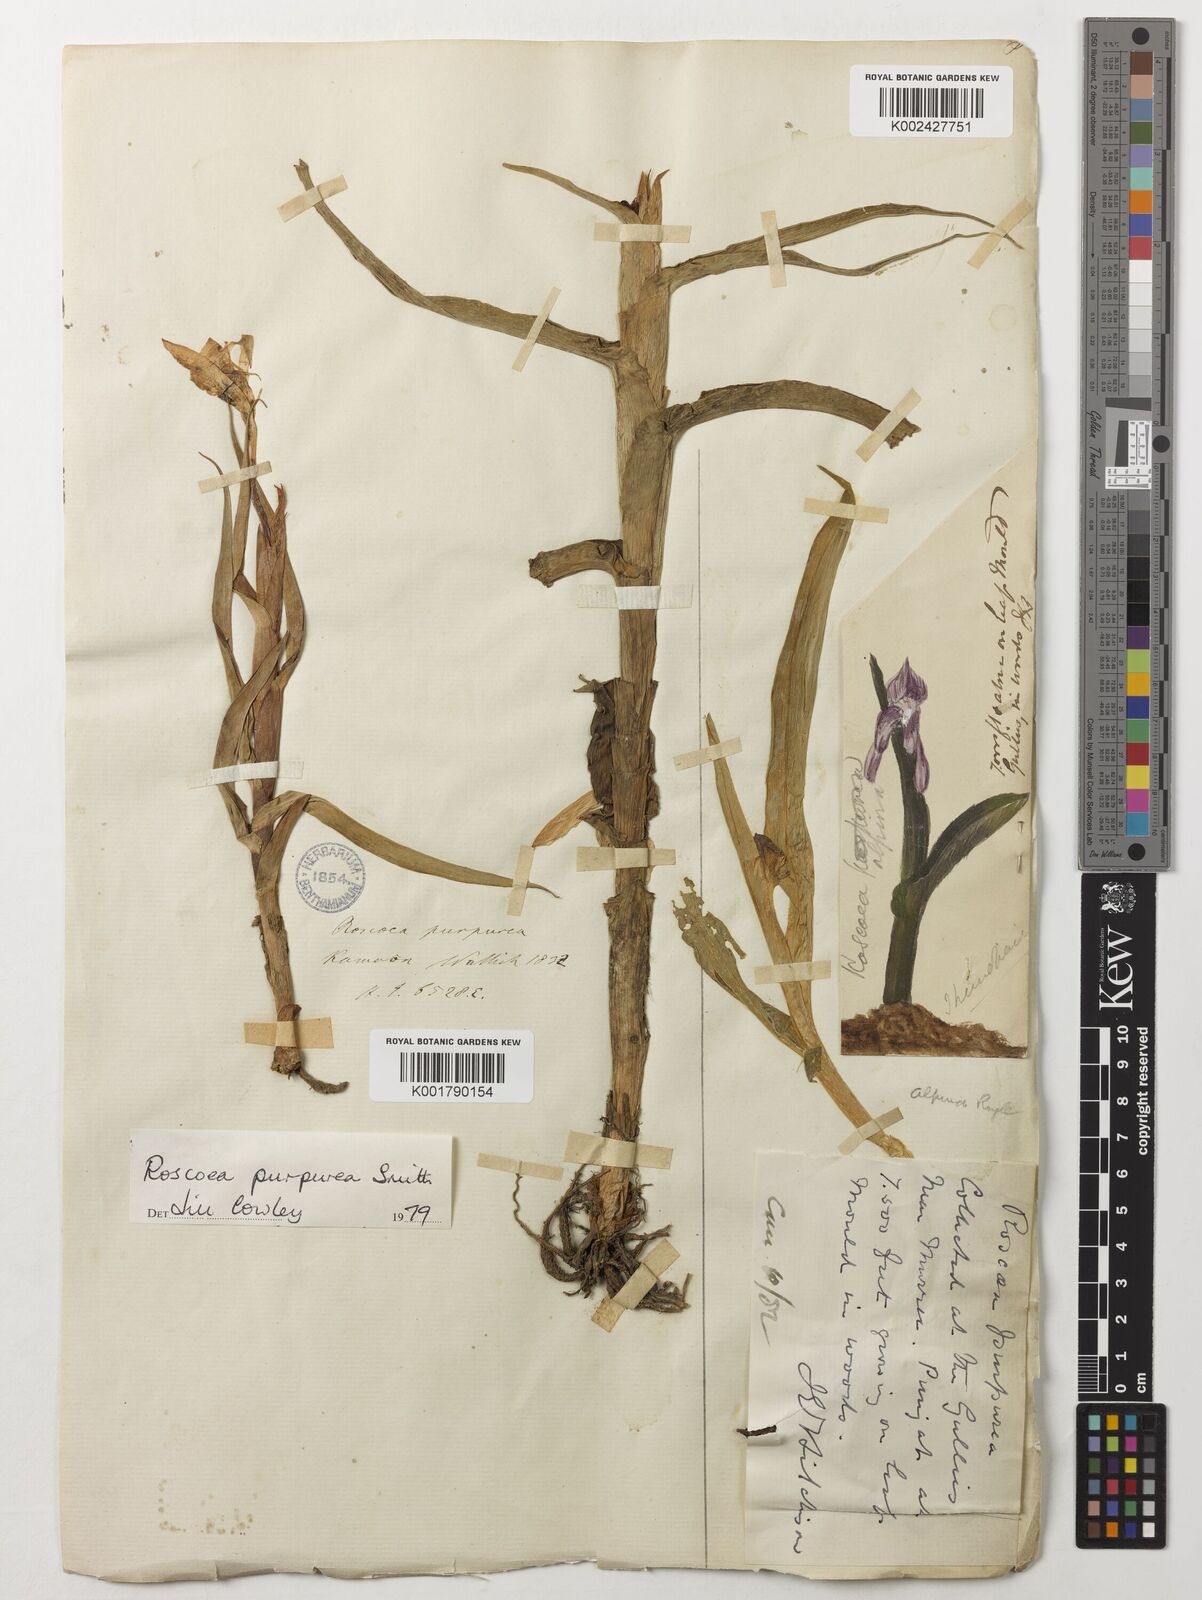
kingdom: Plantae
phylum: Tracheophyta
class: Liliopsida
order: Zingiberales
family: Zingiberaceae
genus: Roscoea
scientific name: Roscoea purpurea
